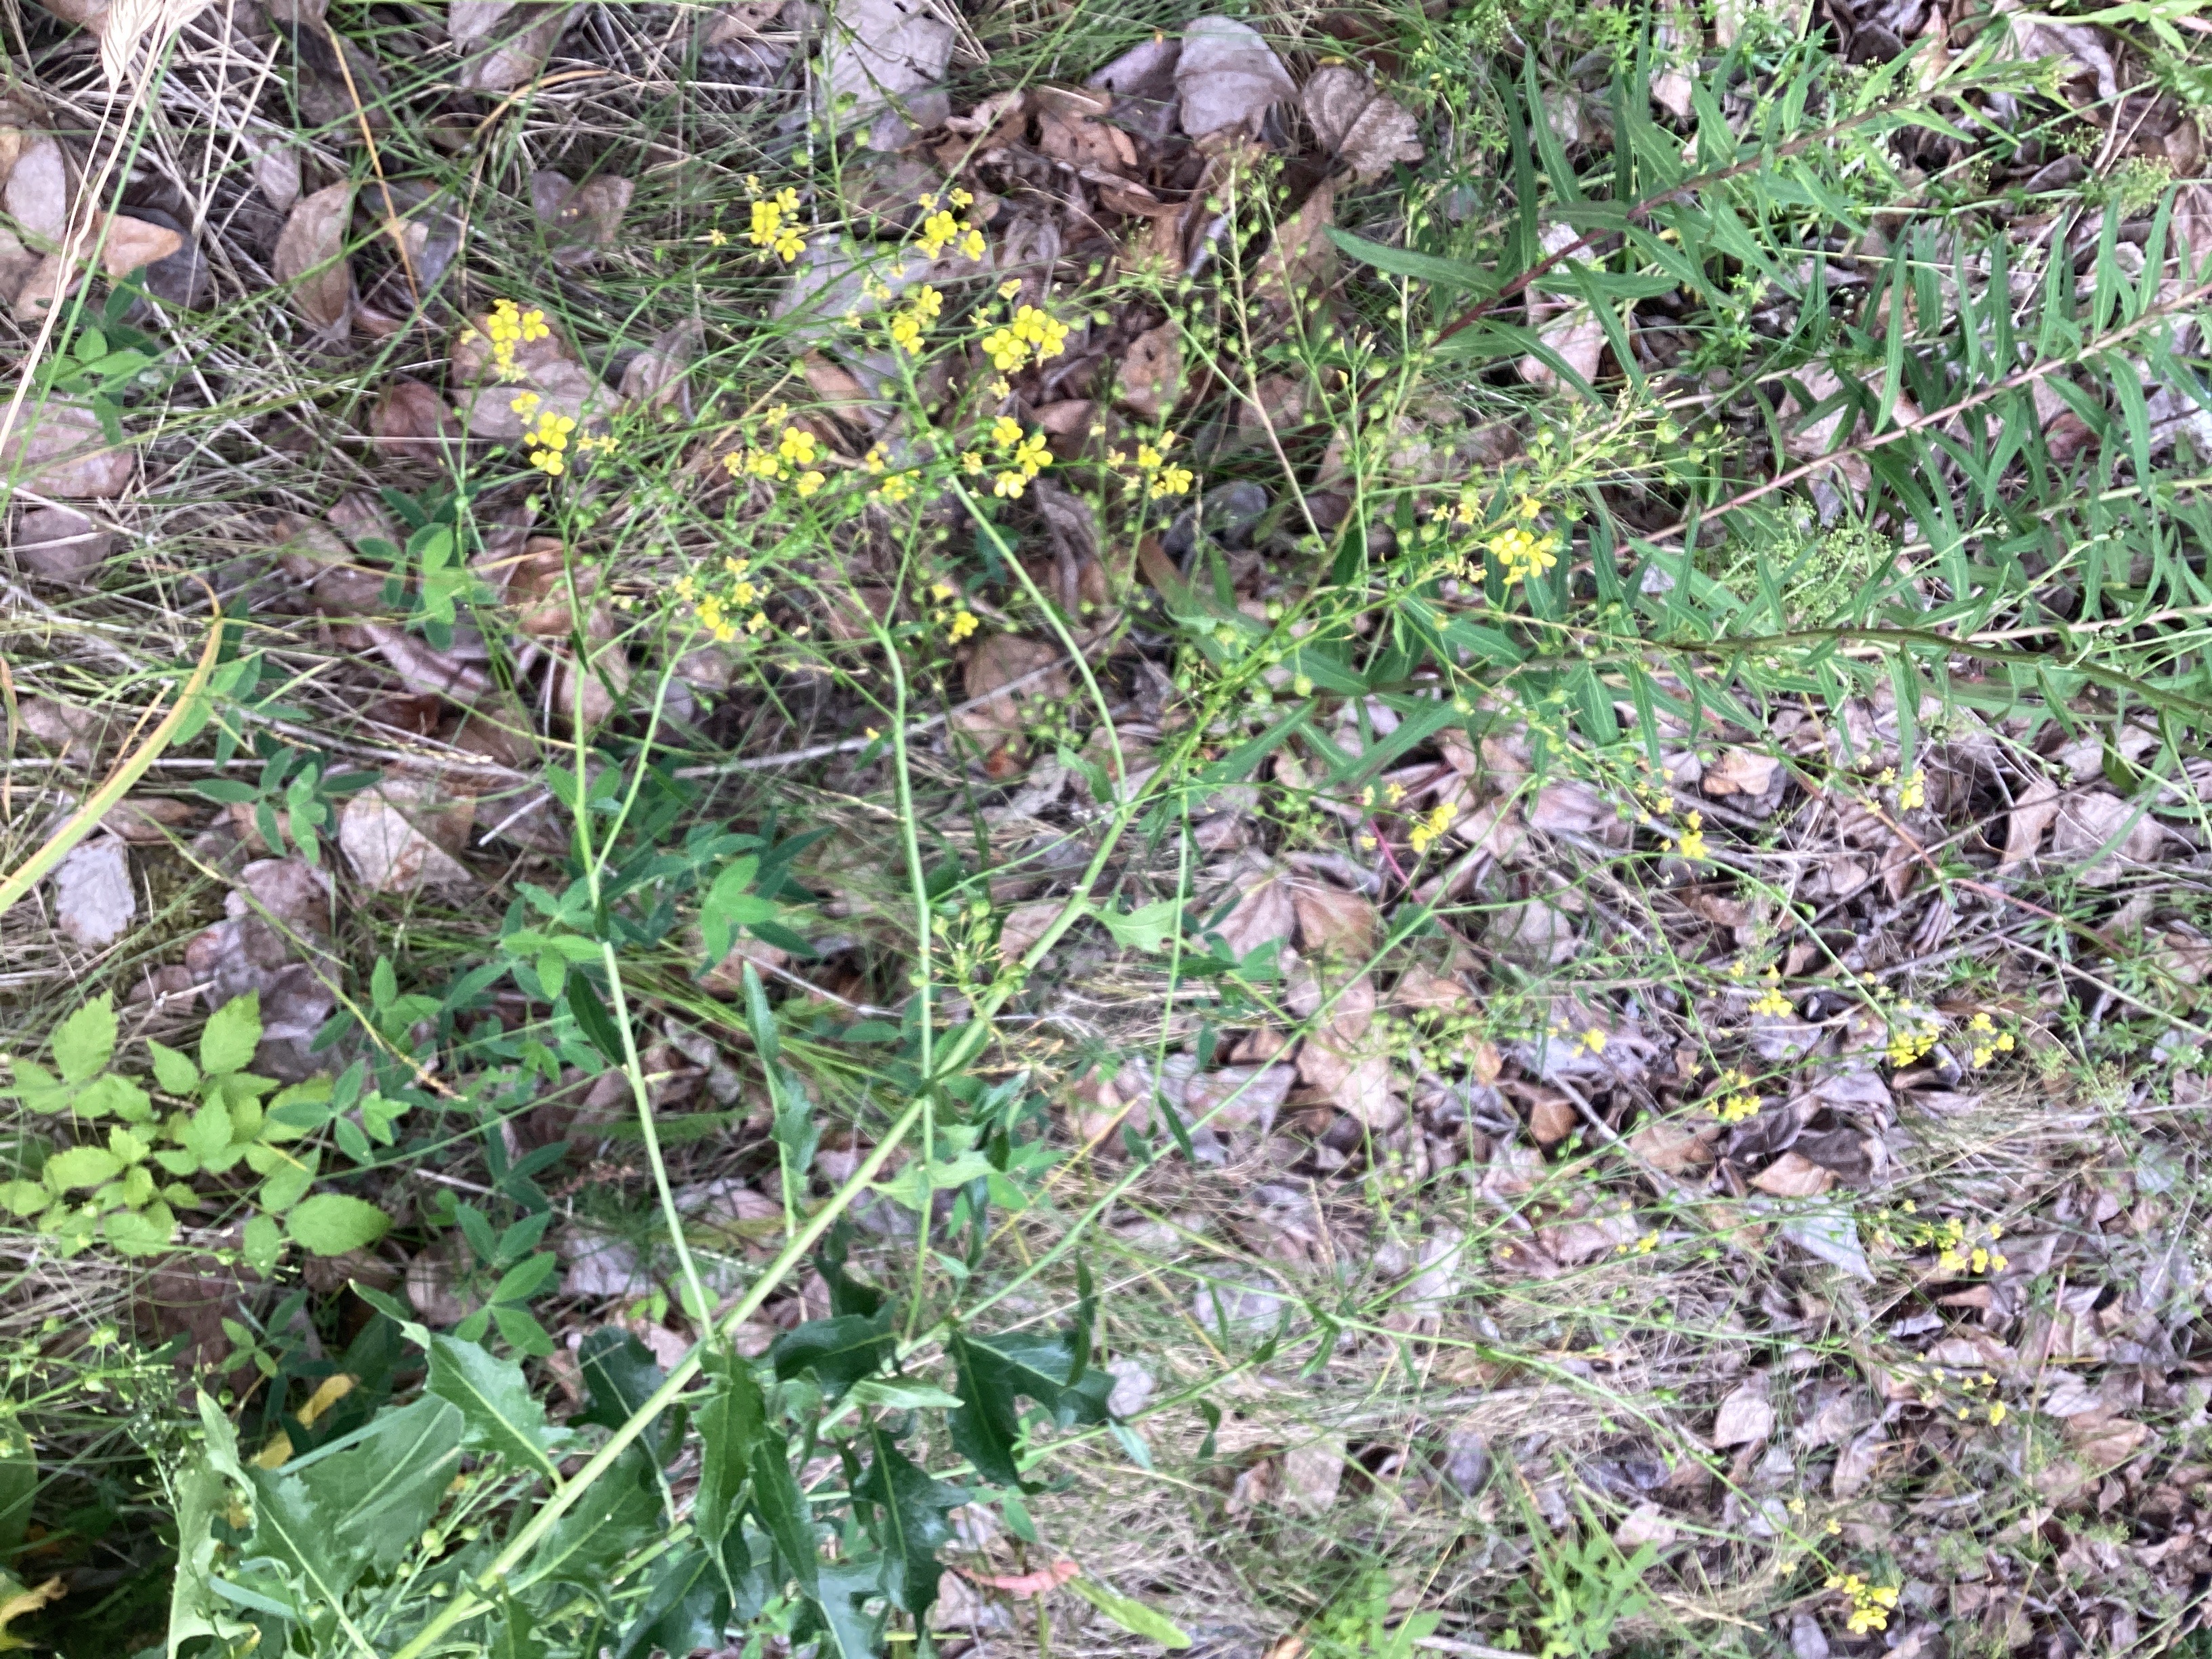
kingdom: Plantae
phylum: Tracheophyta
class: Magnoliopsida
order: Brassicales
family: Brassicaceae
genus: Bunias
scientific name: Bunias orientalis
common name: russekål
